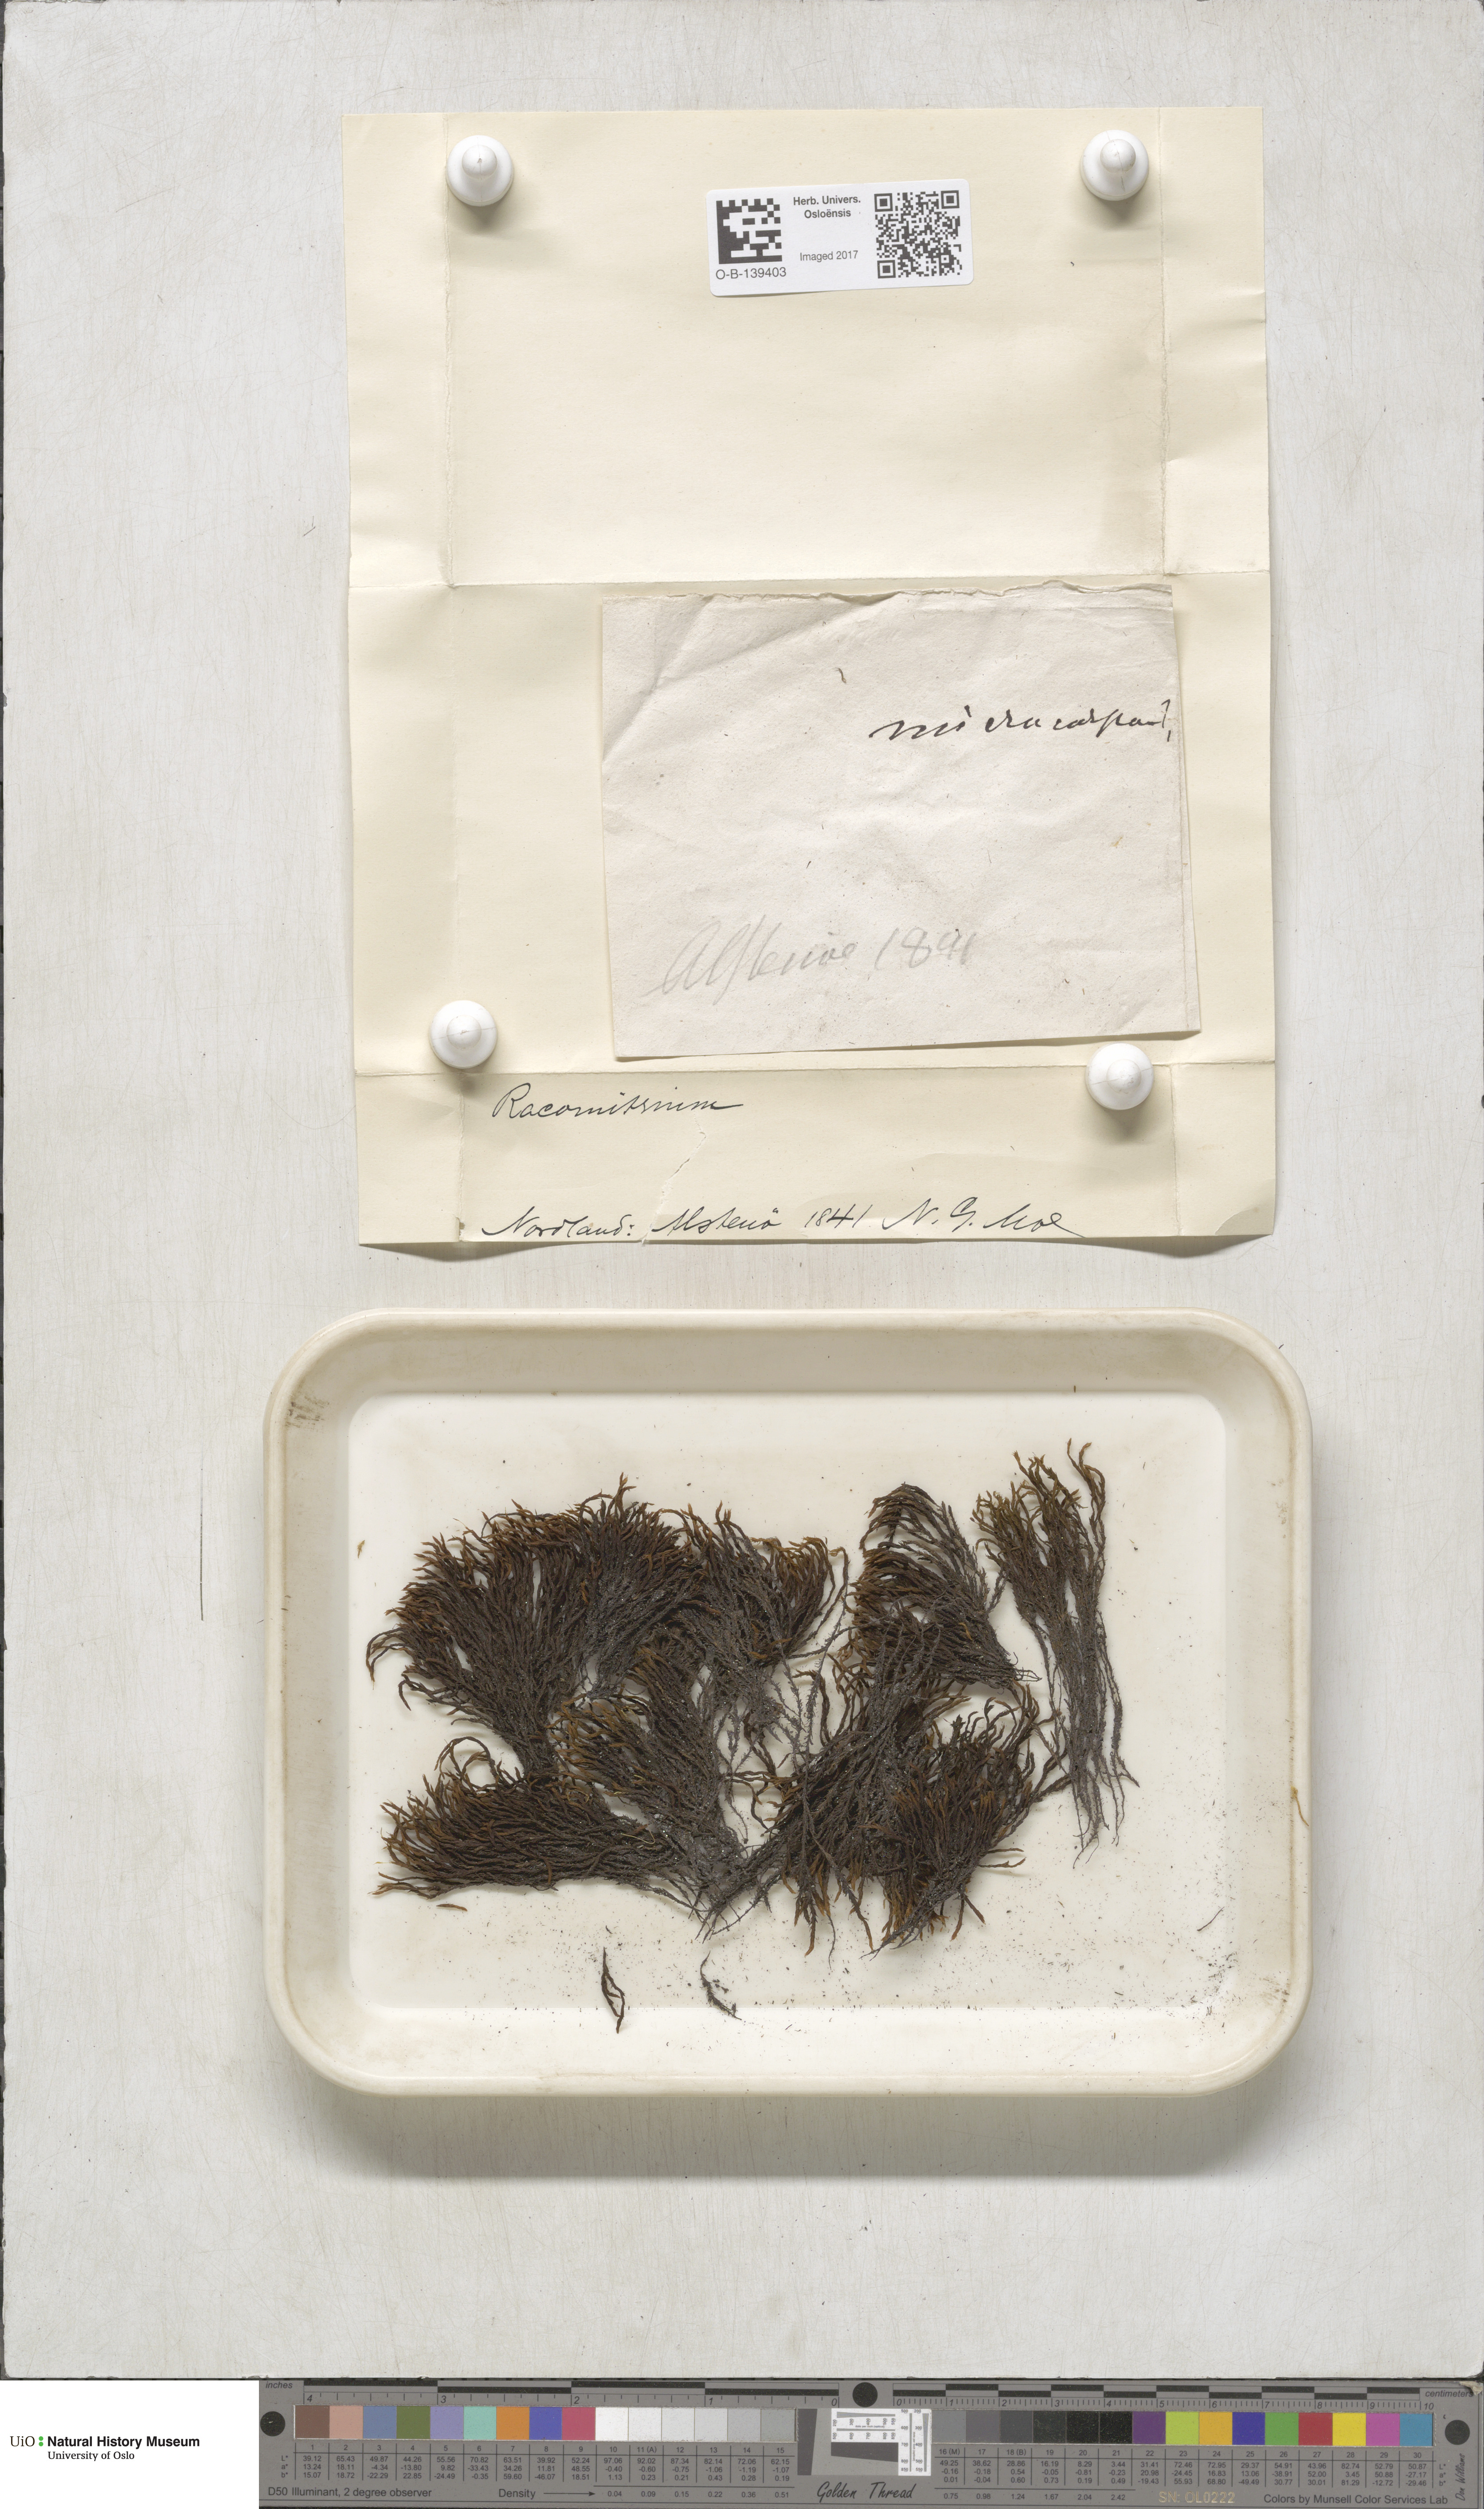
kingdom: Plantae
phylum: Bryophyta
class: Bryopsida
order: Grimmiales
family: Grimmiaceae
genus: Racomitrium
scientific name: Racomitrium
